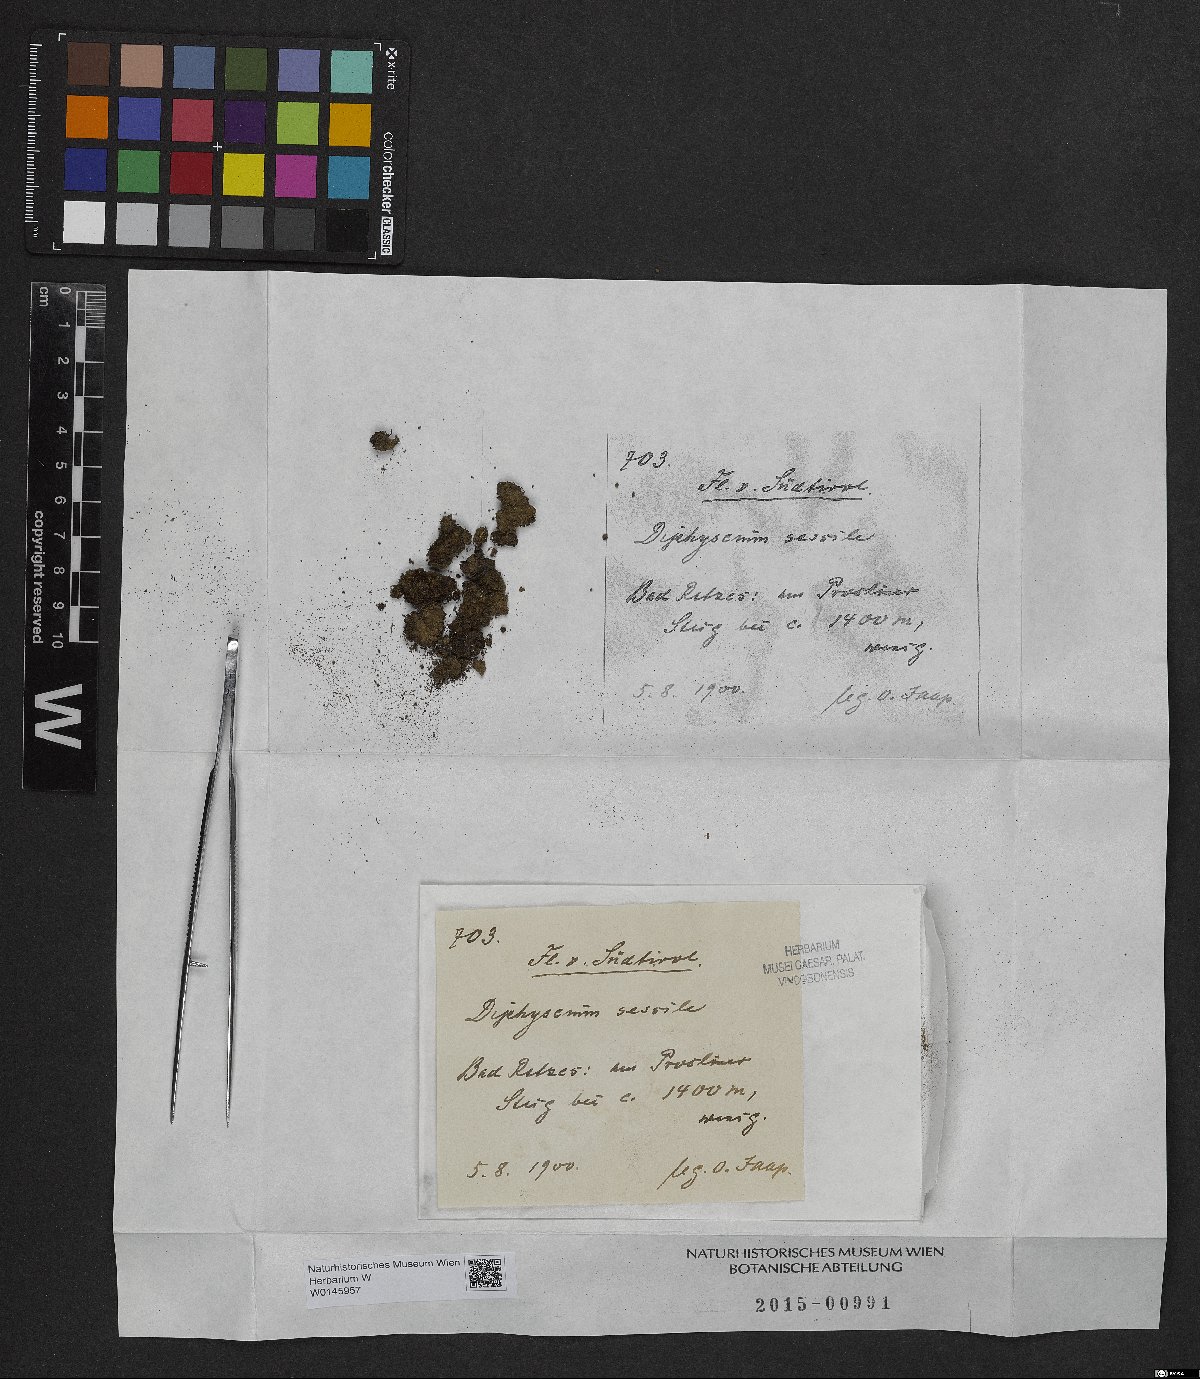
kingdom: Plantae
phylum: Bryophyta
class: Bryopsida
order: Diphysciales
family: Diphysciaceae
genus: Diphyscium
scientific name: Diphyscium foliosum
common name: Nut moss
